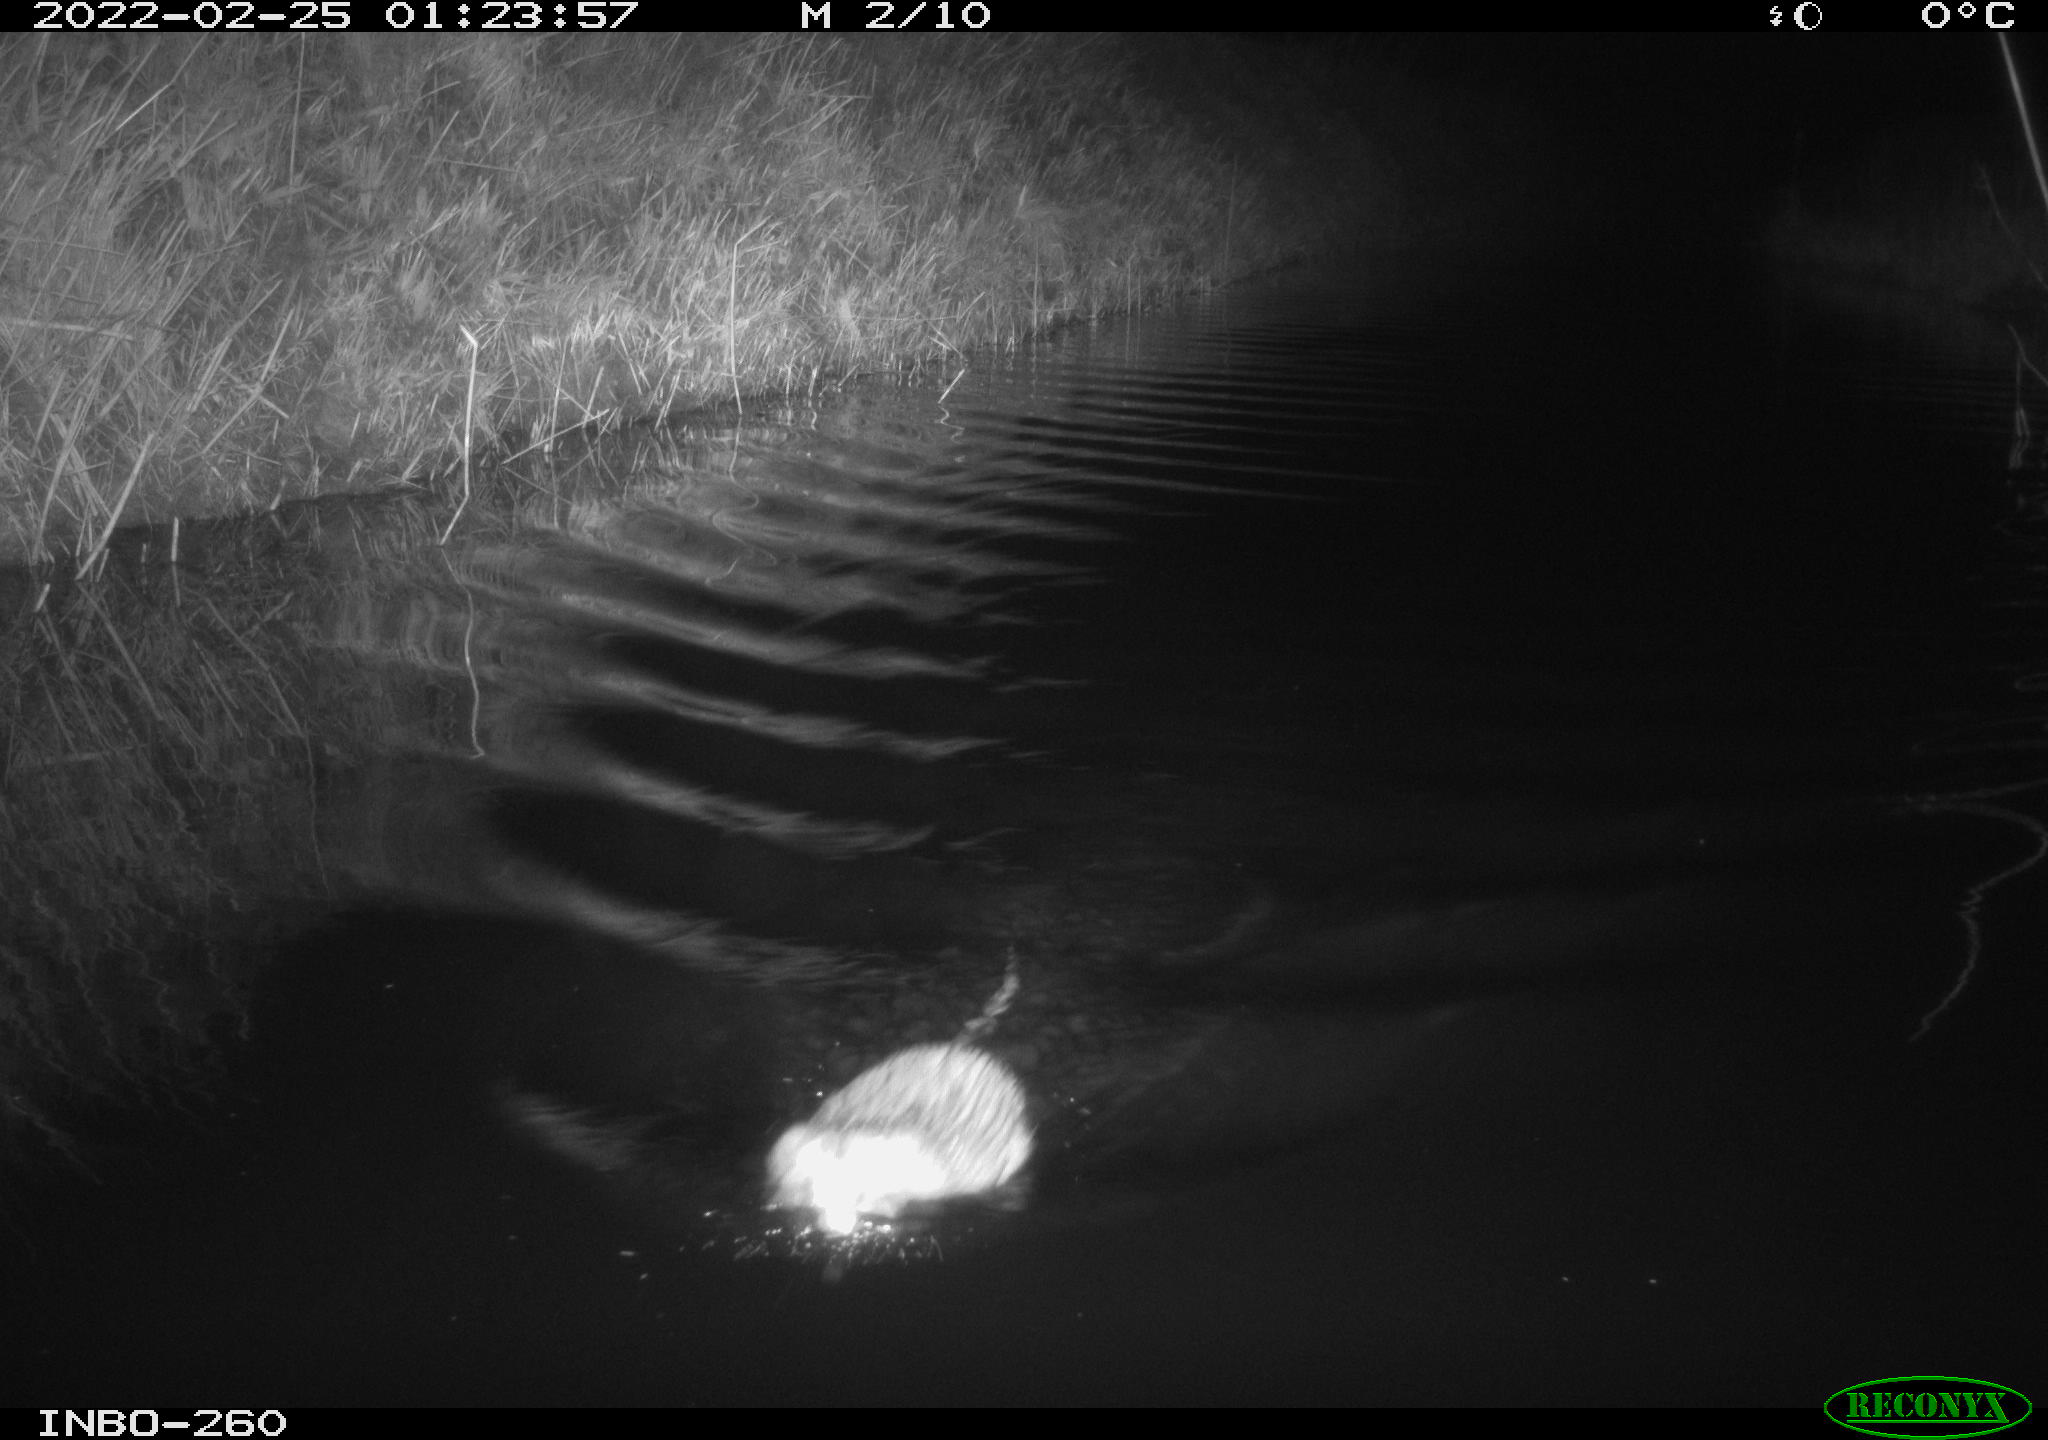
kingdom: Animalia
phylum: Chordata
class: Mammalia
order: Rodentia
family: Cricetidae
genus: Ondatra
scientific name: Ondatra zibethicus
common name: Muskrat
